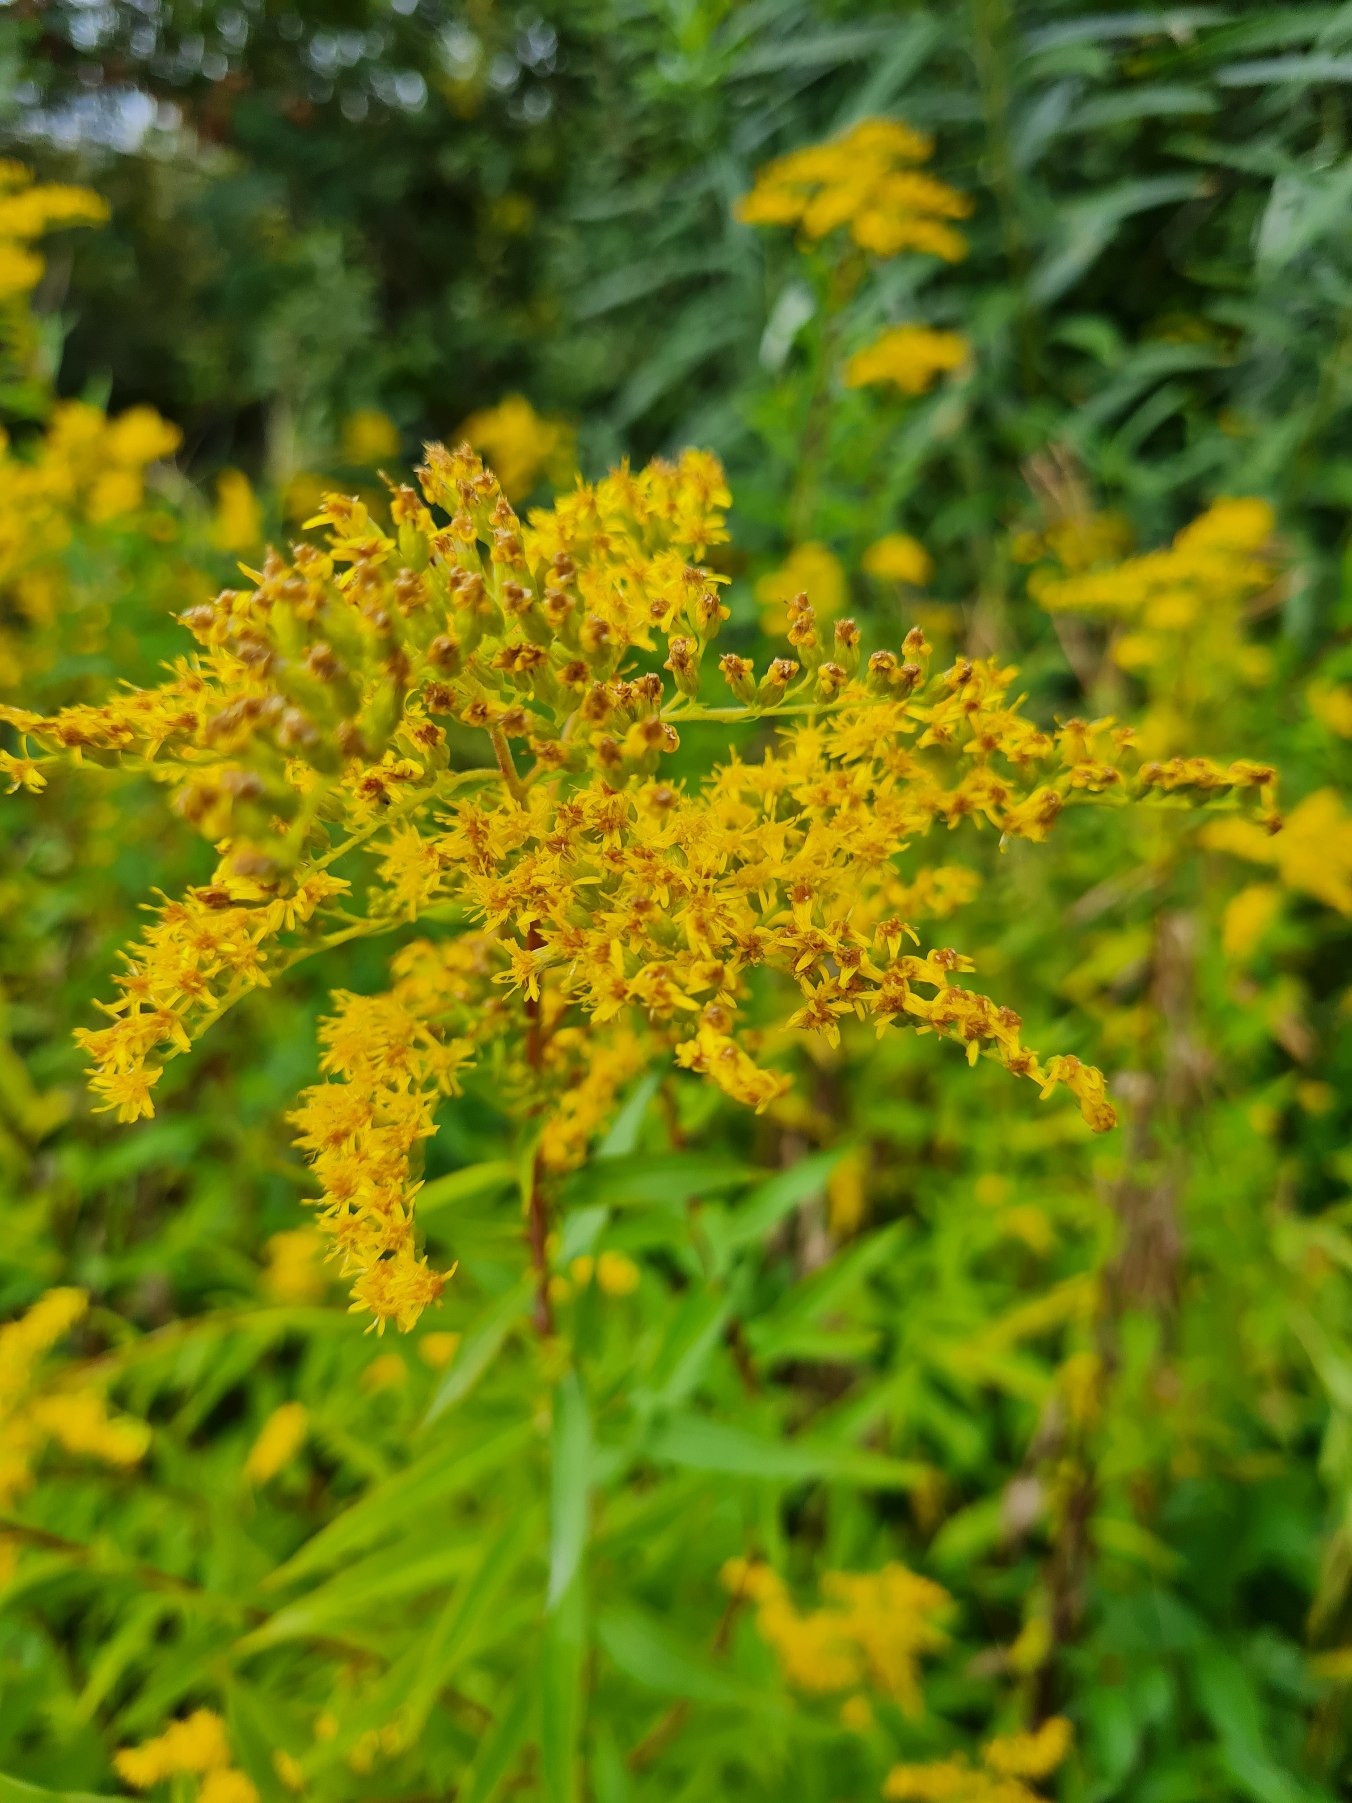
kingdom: Plantae
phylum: Tracheophyta
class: Magnoliopsida
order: Asterales
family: Asteraceae
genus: Solidago
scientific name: Solidago
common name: Gyldenrisslægten
